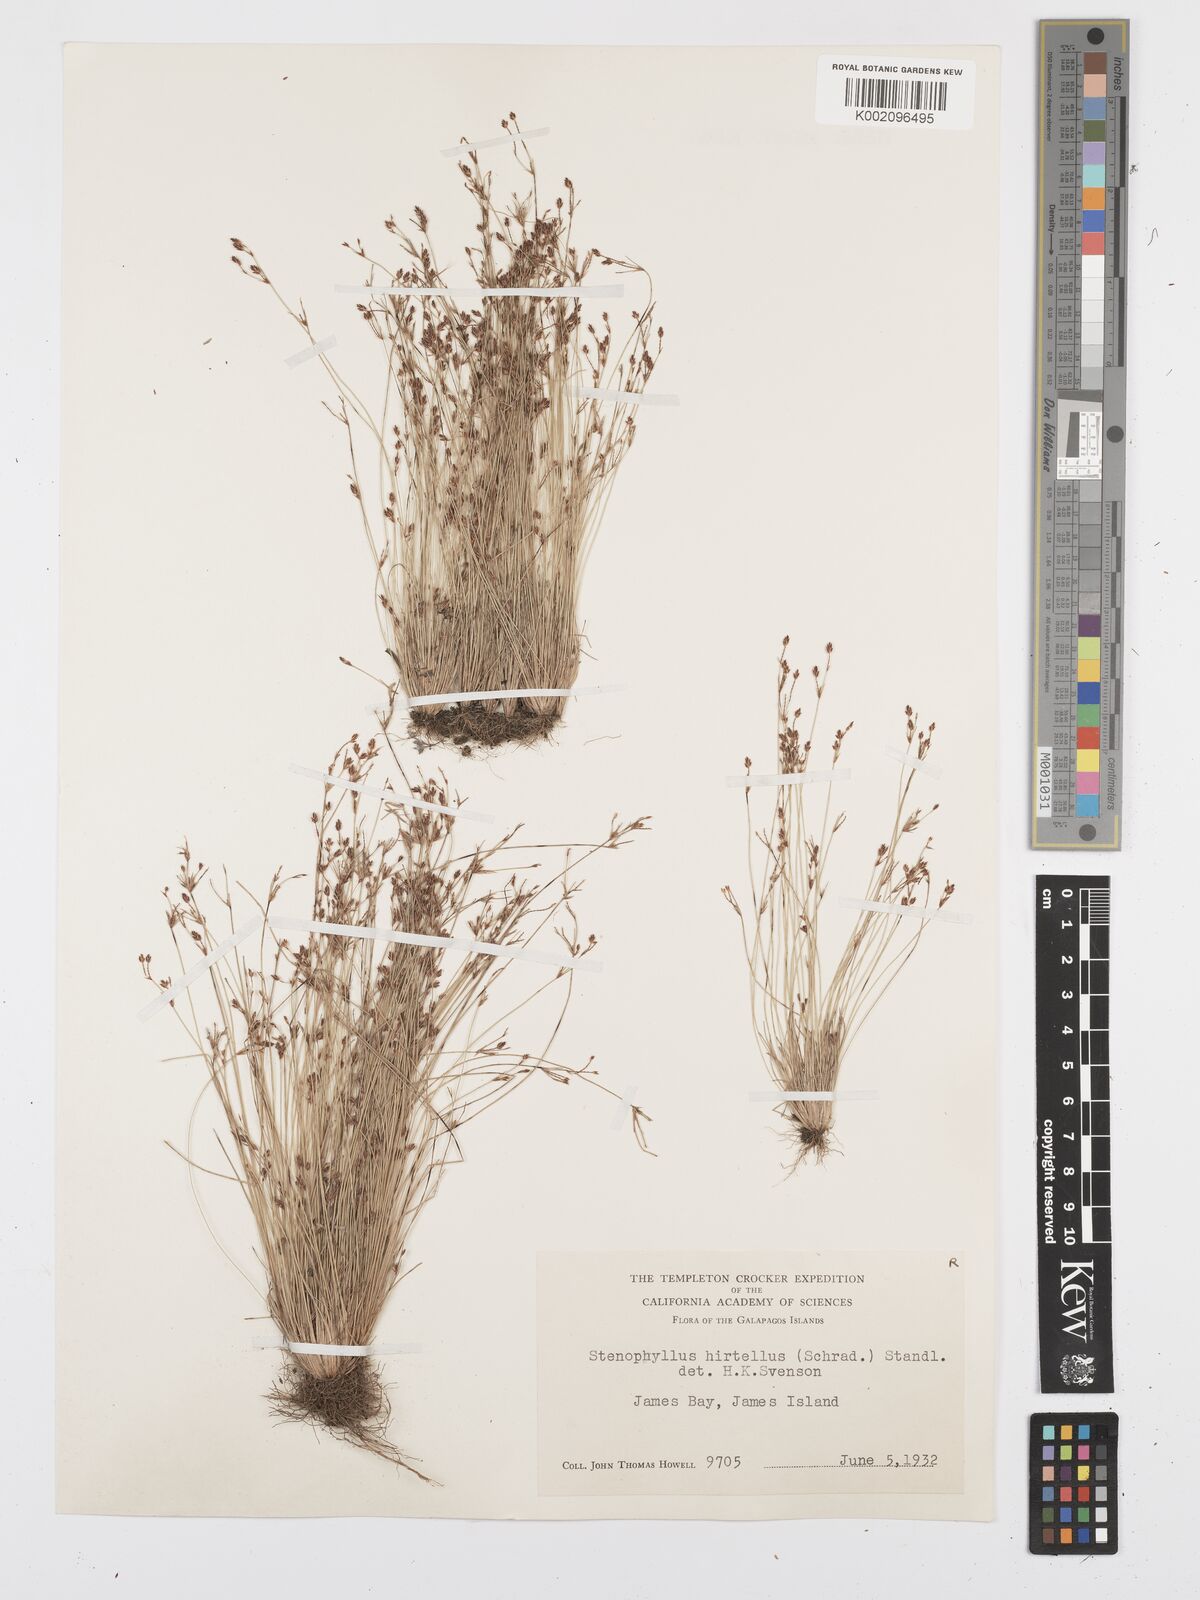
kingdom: Plantae
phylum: Tracheophyta
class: Liliopsida
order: Poales
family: Cyperaceae
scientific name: Cyperaceae
